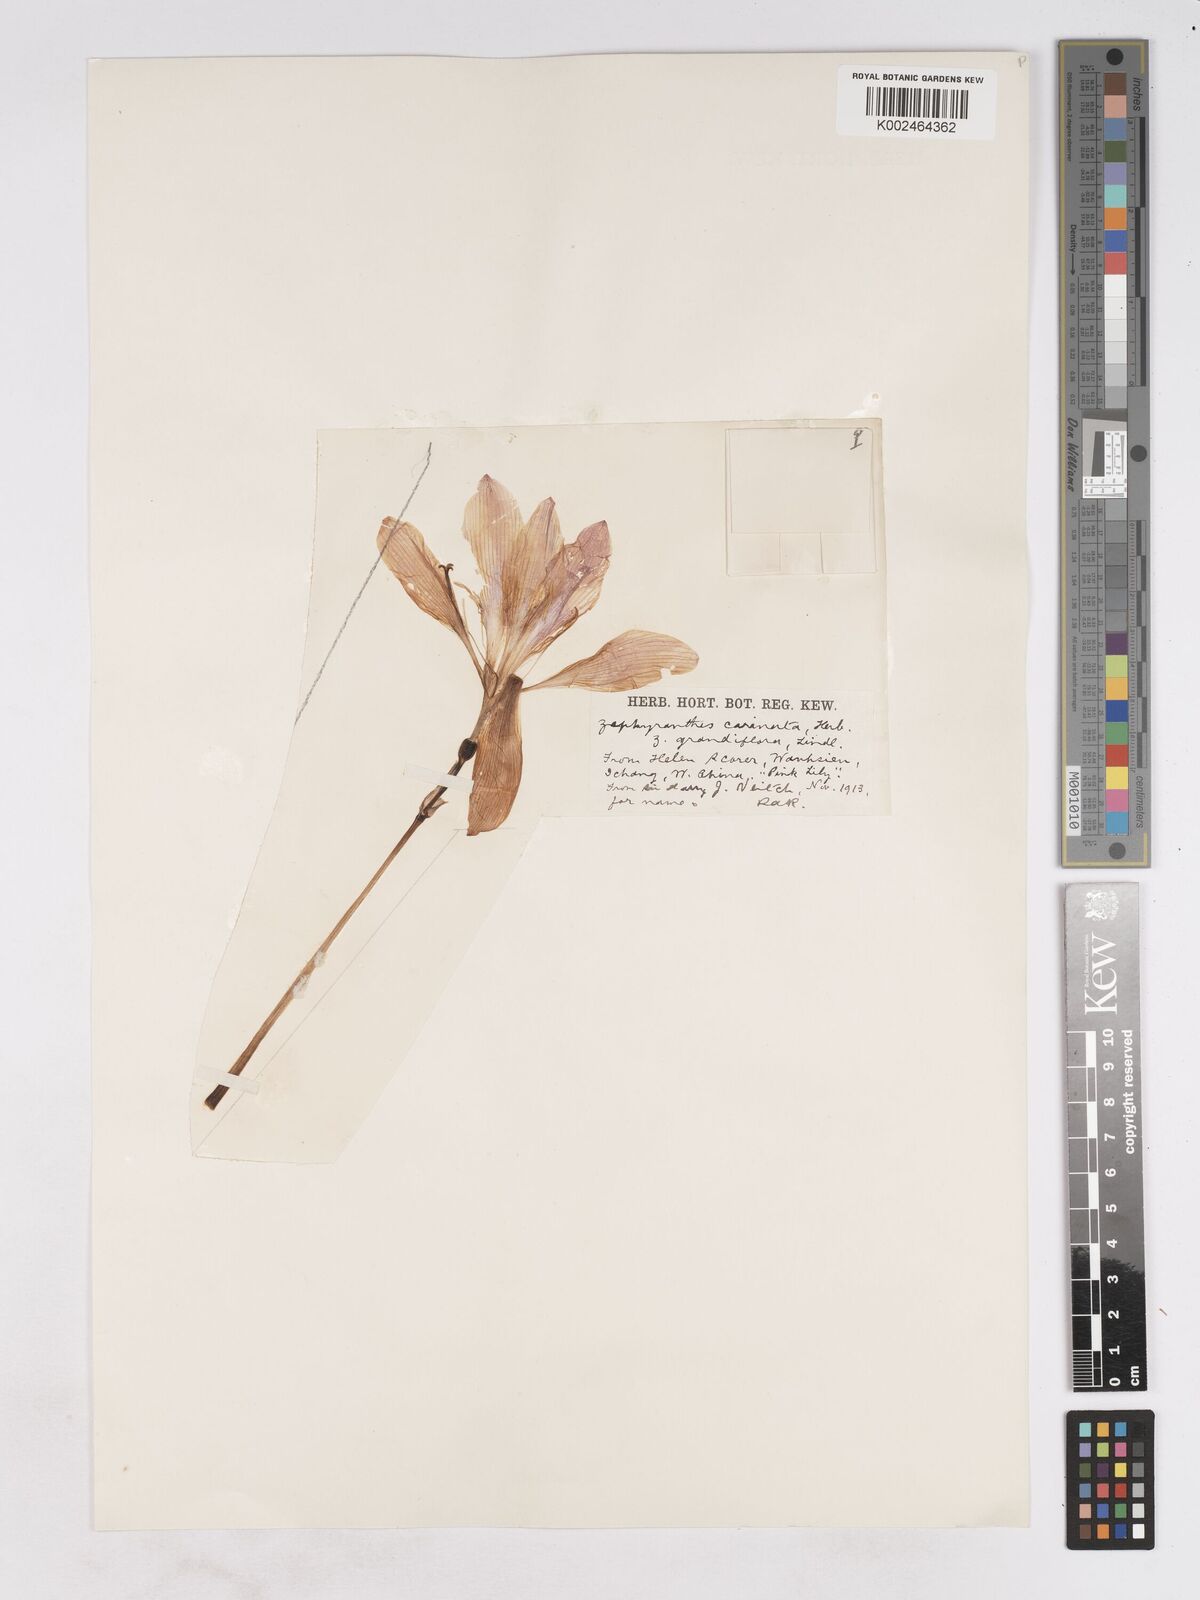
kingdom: Plantae
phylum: Tracheophyta
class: Liliopsida
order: Asparagales
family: Amaryllidaceae
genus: Zephyranthes
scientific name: Zephyranthes minuta
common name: Pink rain lily
